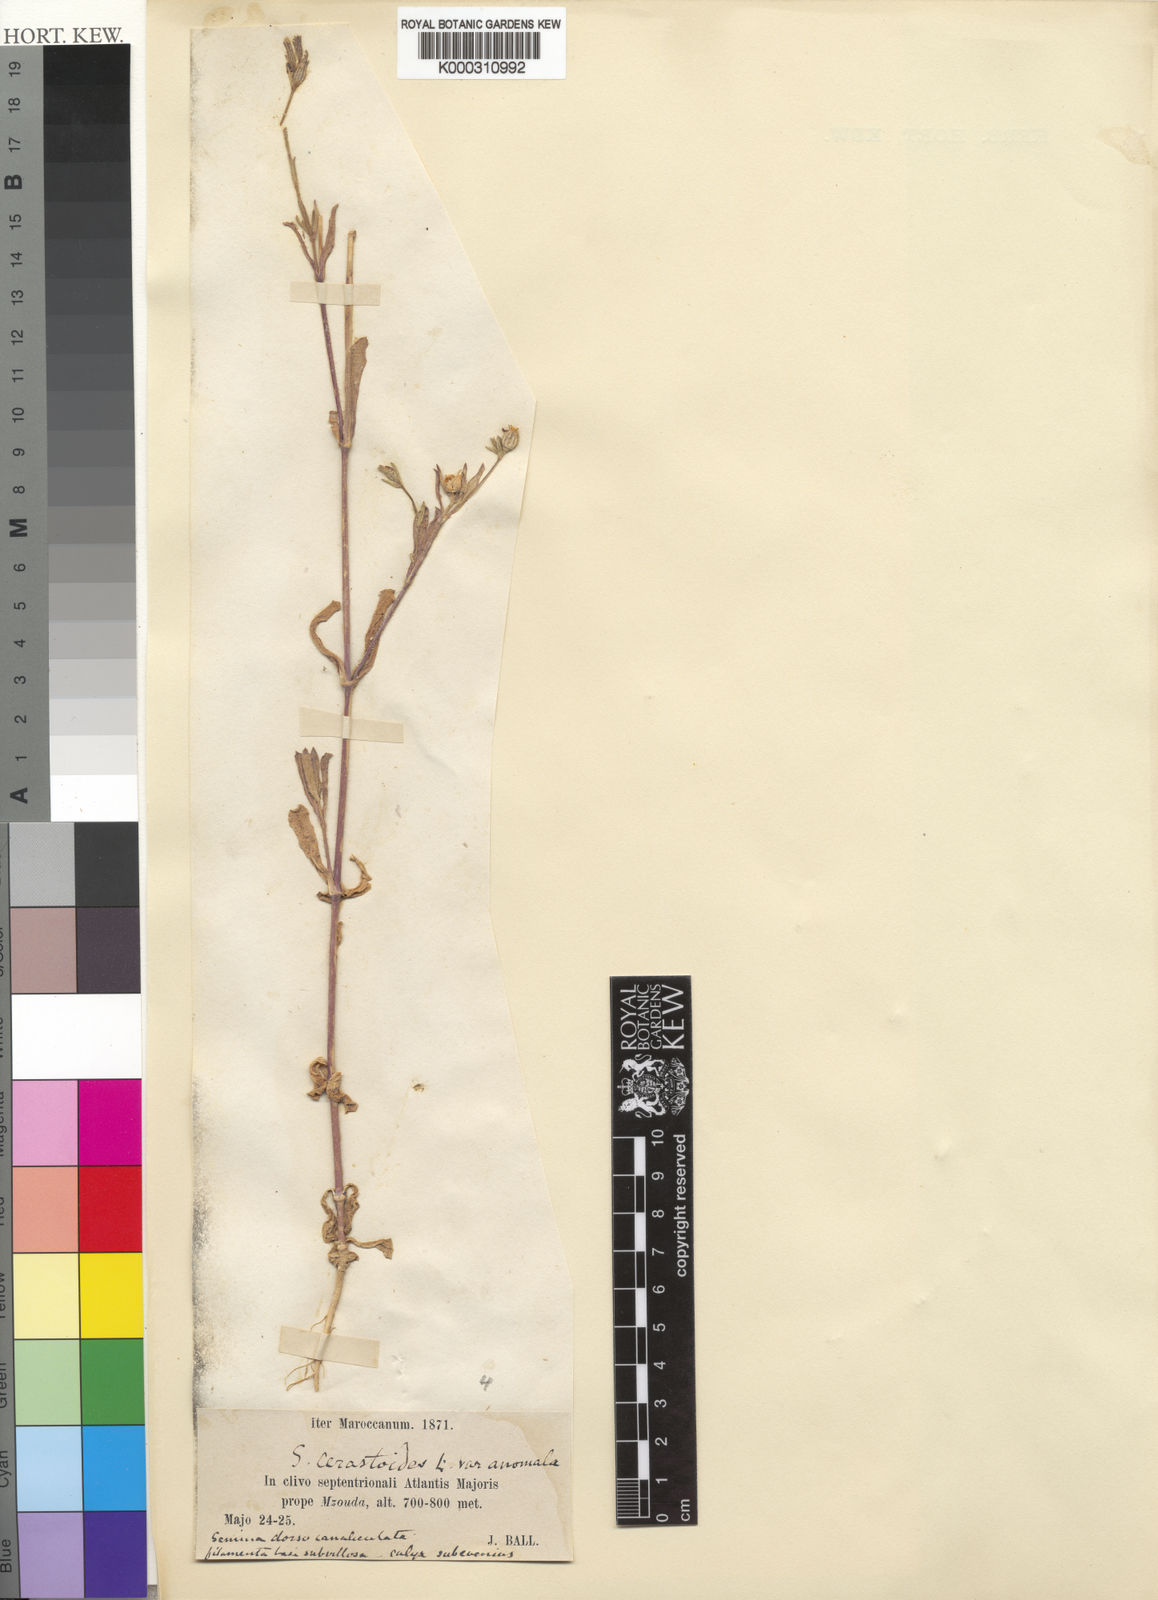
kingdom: Plantae
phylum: Tracheophyta
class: Magnoliopsida
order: Caryophyllales
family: Caryophyllaceae
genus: Silene
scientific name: Silene corrugata
